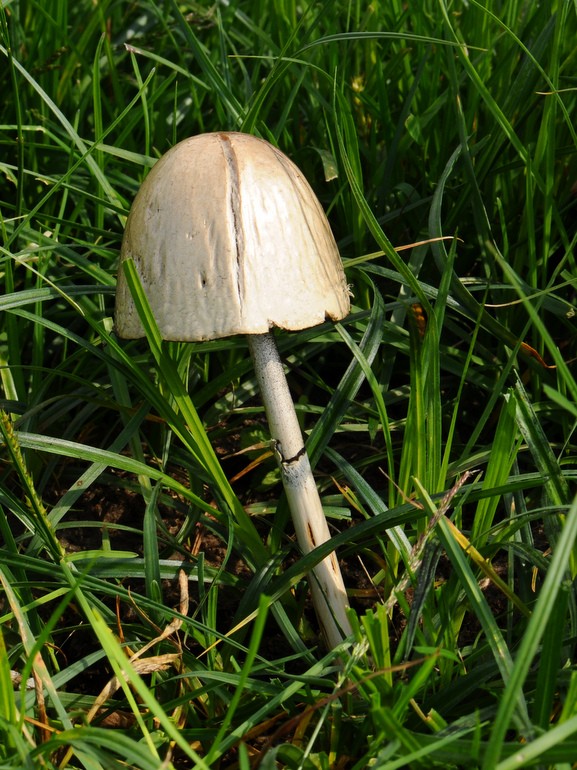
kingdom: Fungi
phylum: Basidiomycota
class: Agaricomycetes
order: Agaricales
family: Bolbitiaceae
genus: Panaeolus
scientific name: Panaeolus semiovatus
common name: ring-glanshat
